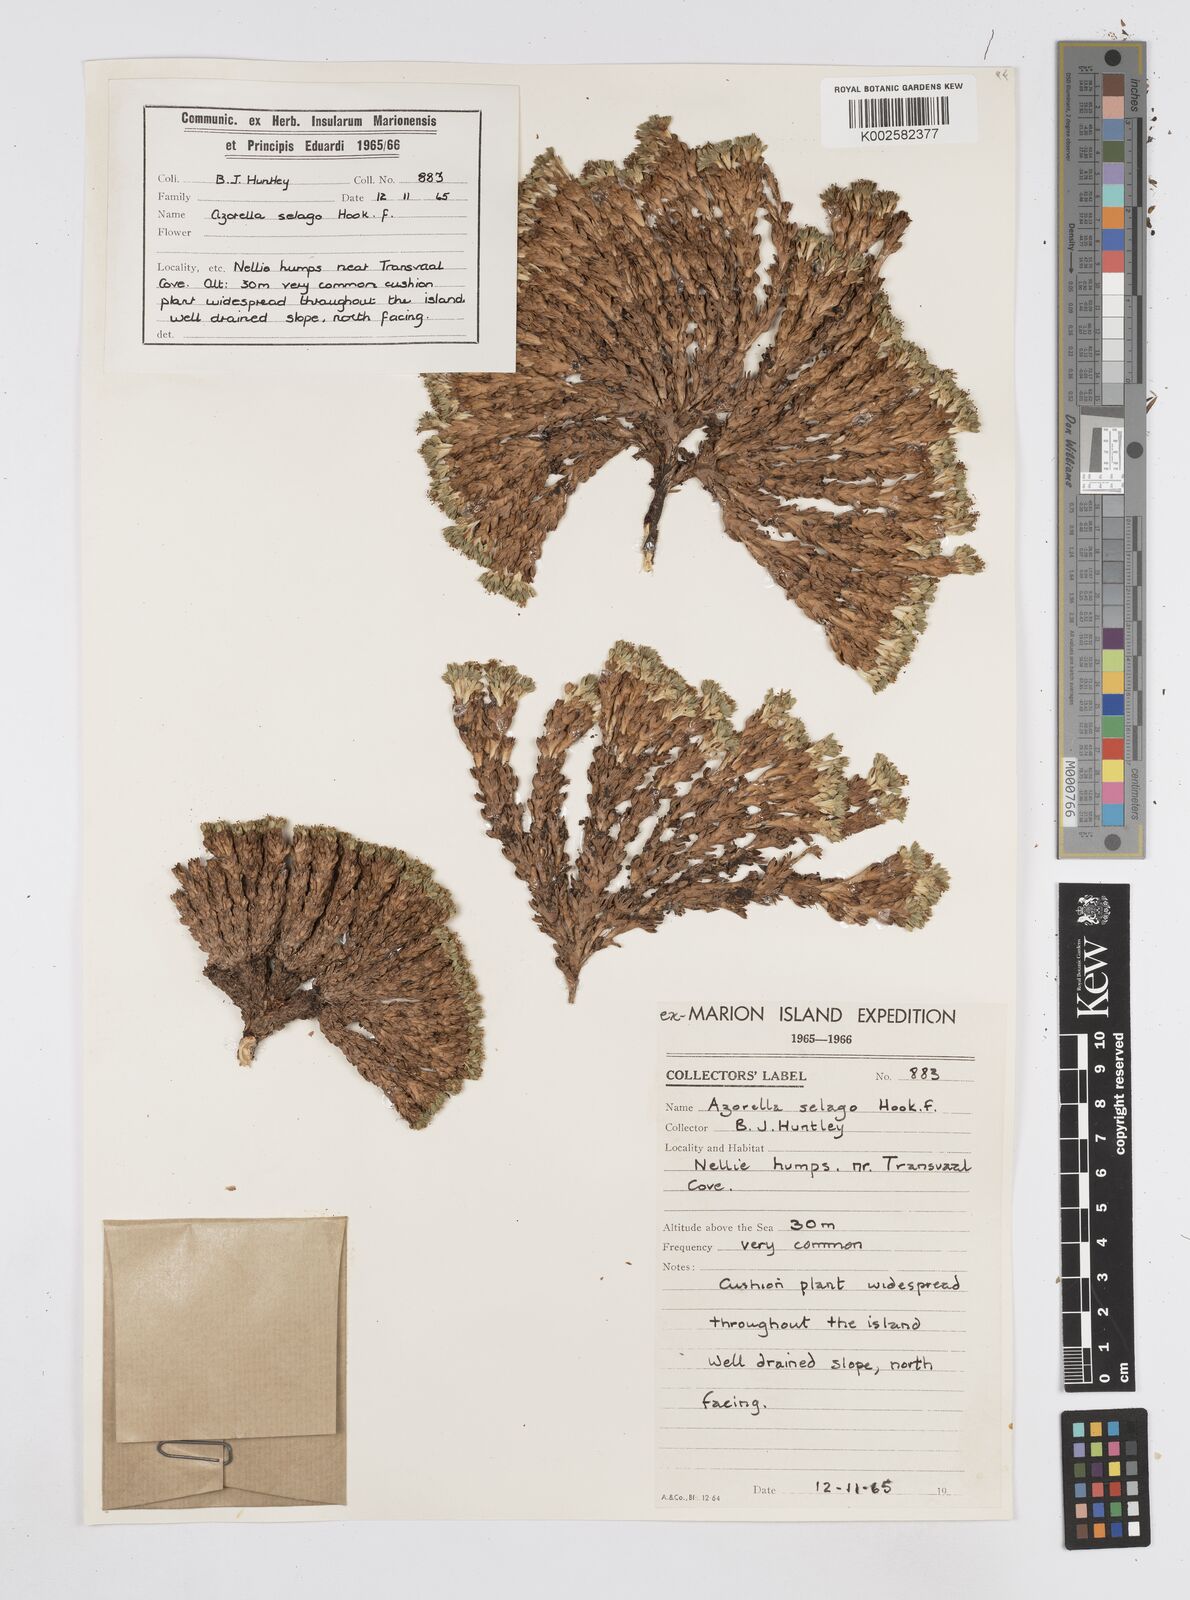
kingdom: Plantae
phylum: Tracheophyta
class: Magnoliopsida
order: Apiales
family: Apiaceae
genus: Azorella
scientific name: Azorella selago
